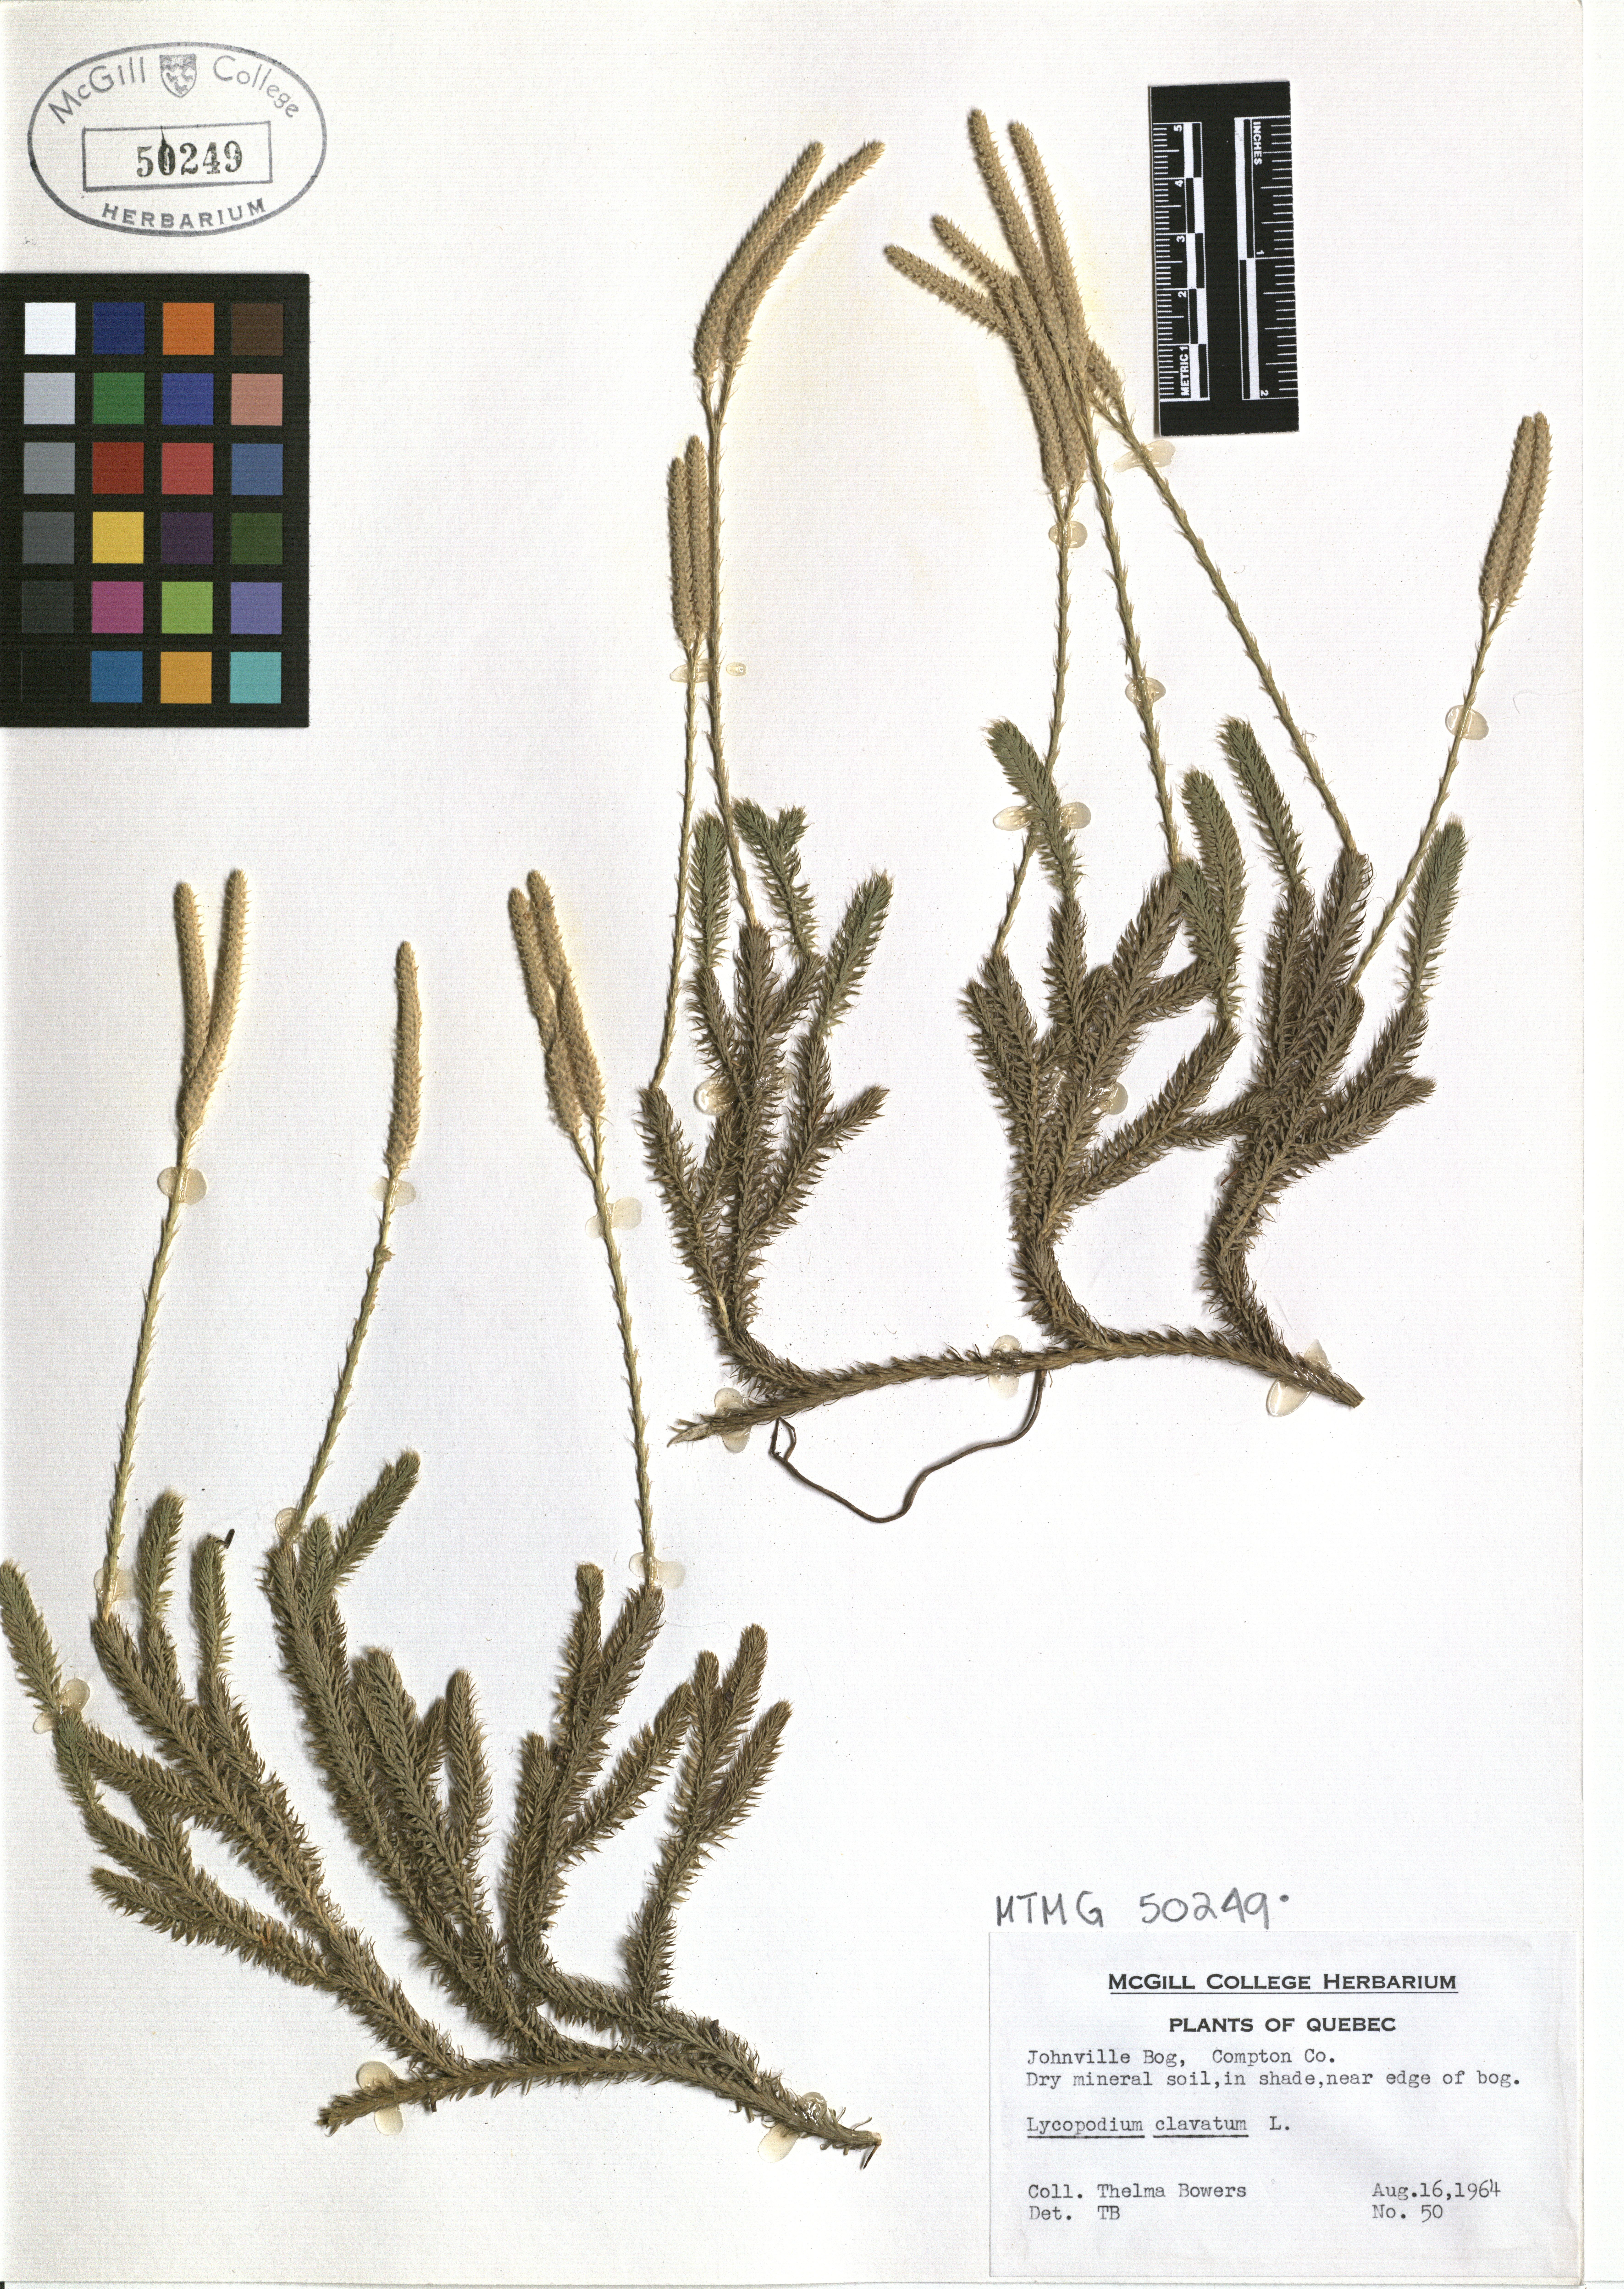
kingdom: Plantae
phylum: Tracheophyta
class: Lycopodiopsida
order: Lycopodiales
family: Lycopodiaceae
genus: Lycopodium
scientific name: Lycopodium clavatum
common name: Stag's-horn clubmoss
